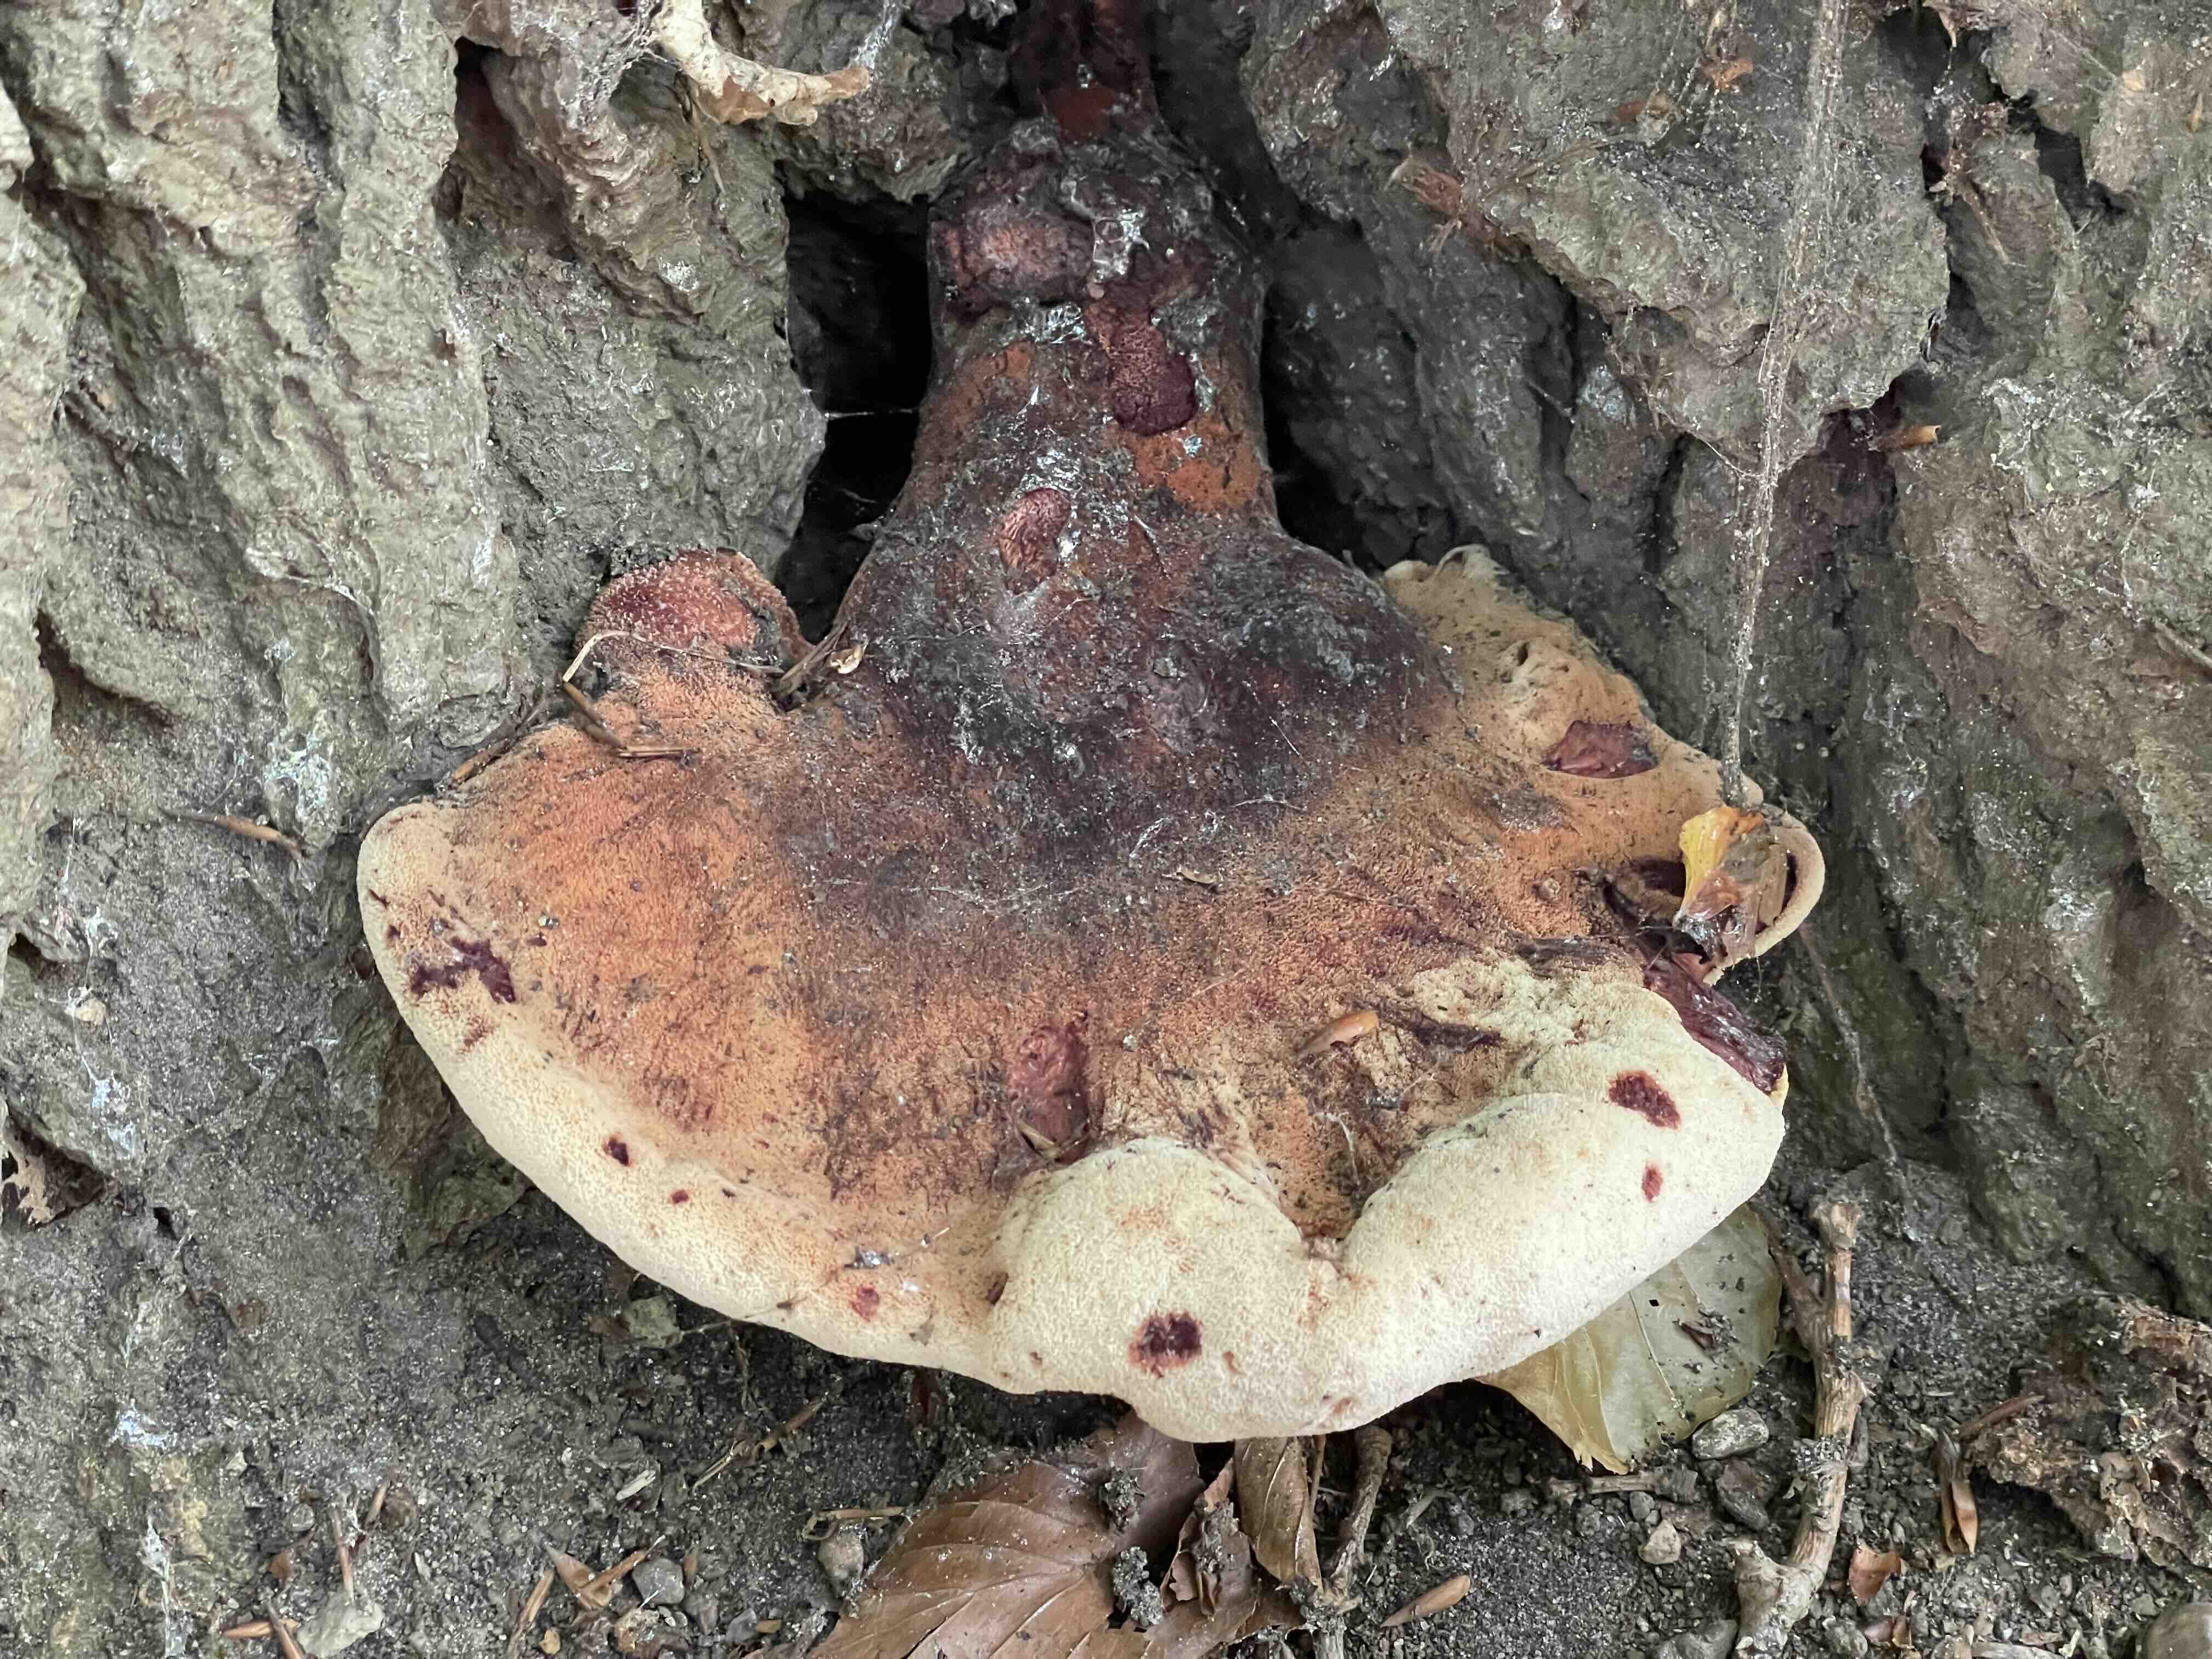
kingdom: Fungi
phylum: Basidiomycota
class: Agaricomycetes
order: Agaricales
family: Fistulinaceae
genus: Fistulina
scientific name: Fistulina hepatica
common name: oksetunge
